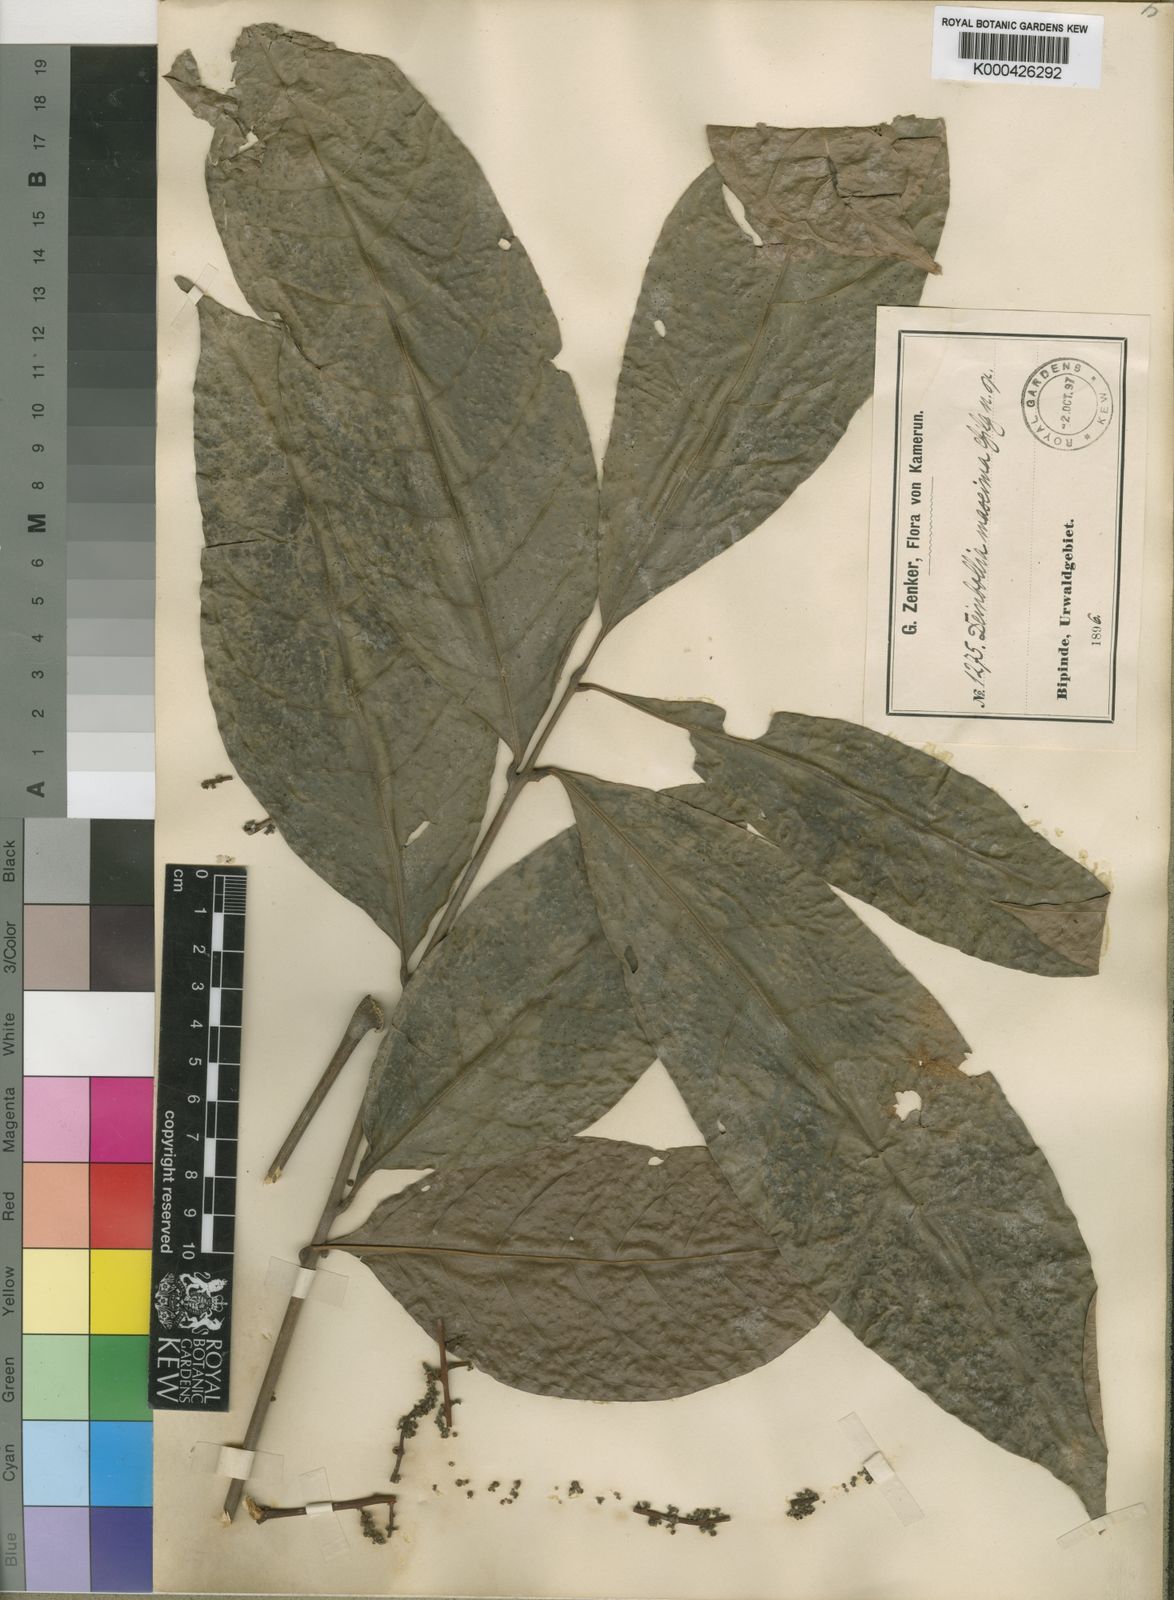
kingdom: Plantae
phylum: Tracheophyta
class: Magnoliopsida
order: Sapindales
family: Sapindaceae
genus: Deinbollia
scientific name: Deinbollia maxima
